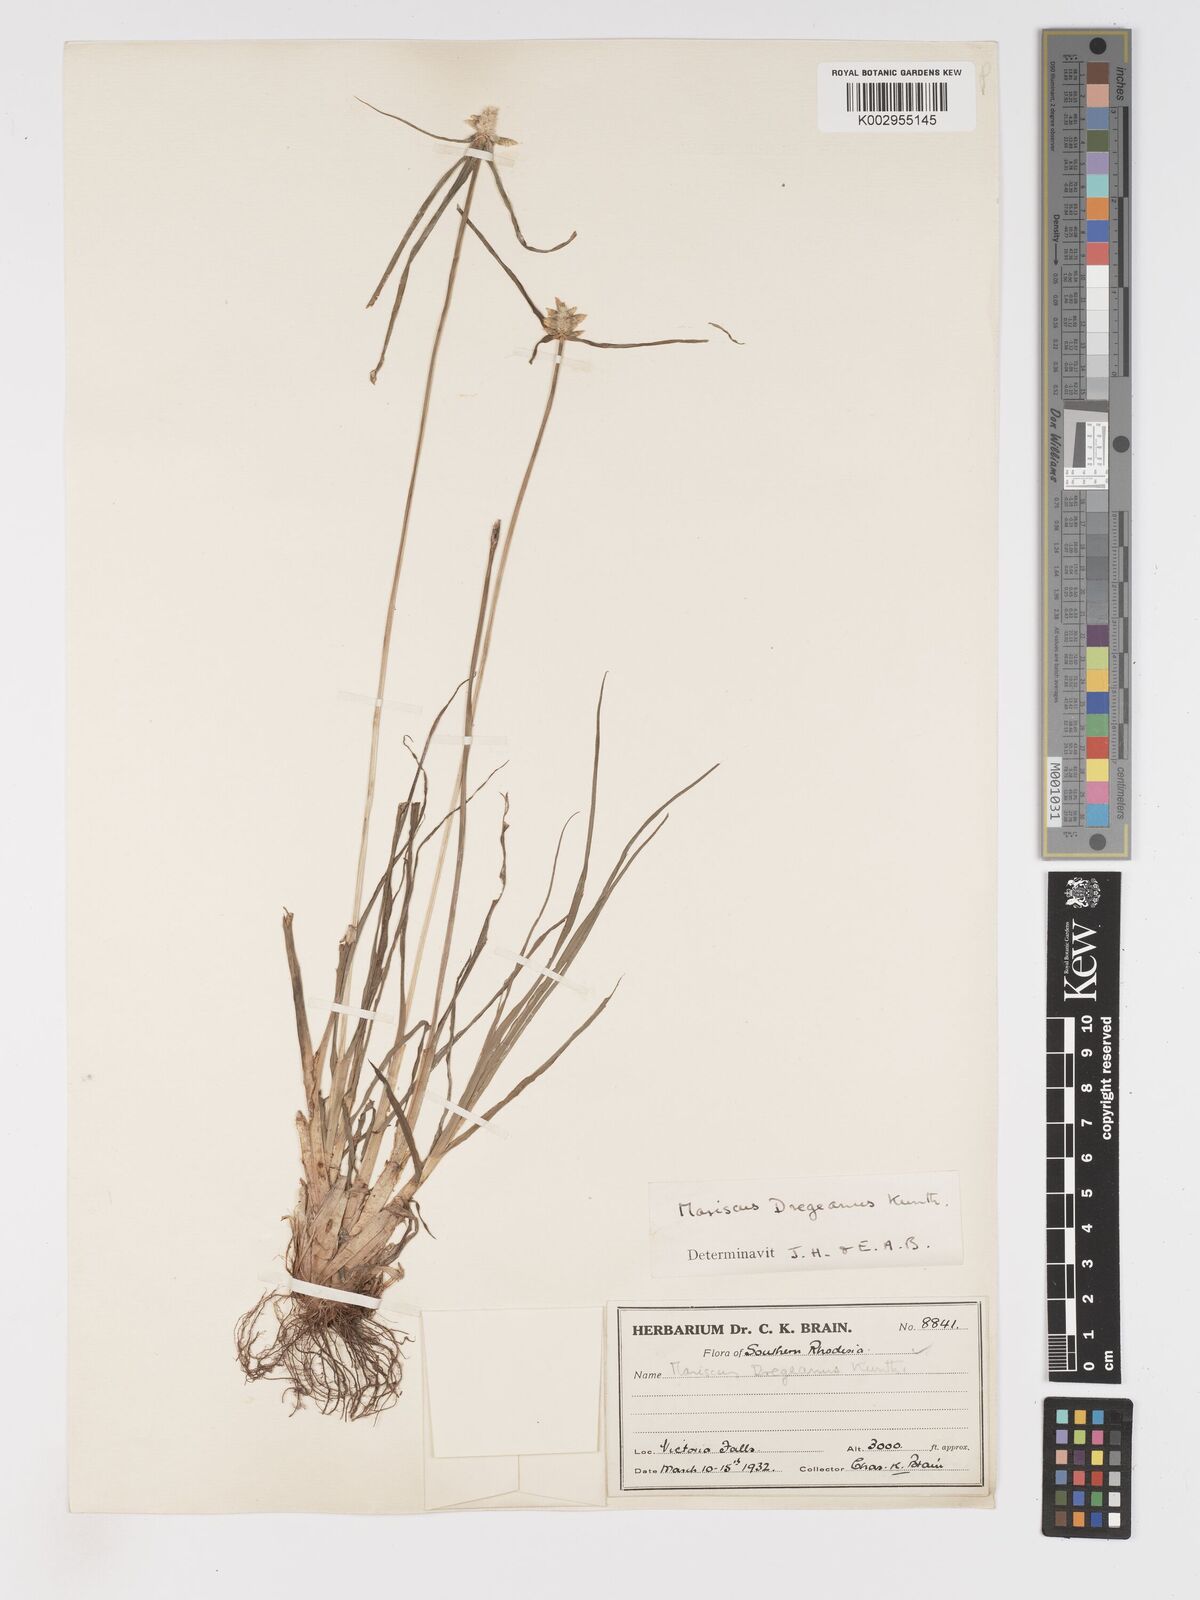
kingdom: Plantae
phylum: Tracheophyta
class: Liliopsida
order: Poales
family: Cyperaceae
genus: Cyperus
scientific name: Cyperus dubius
